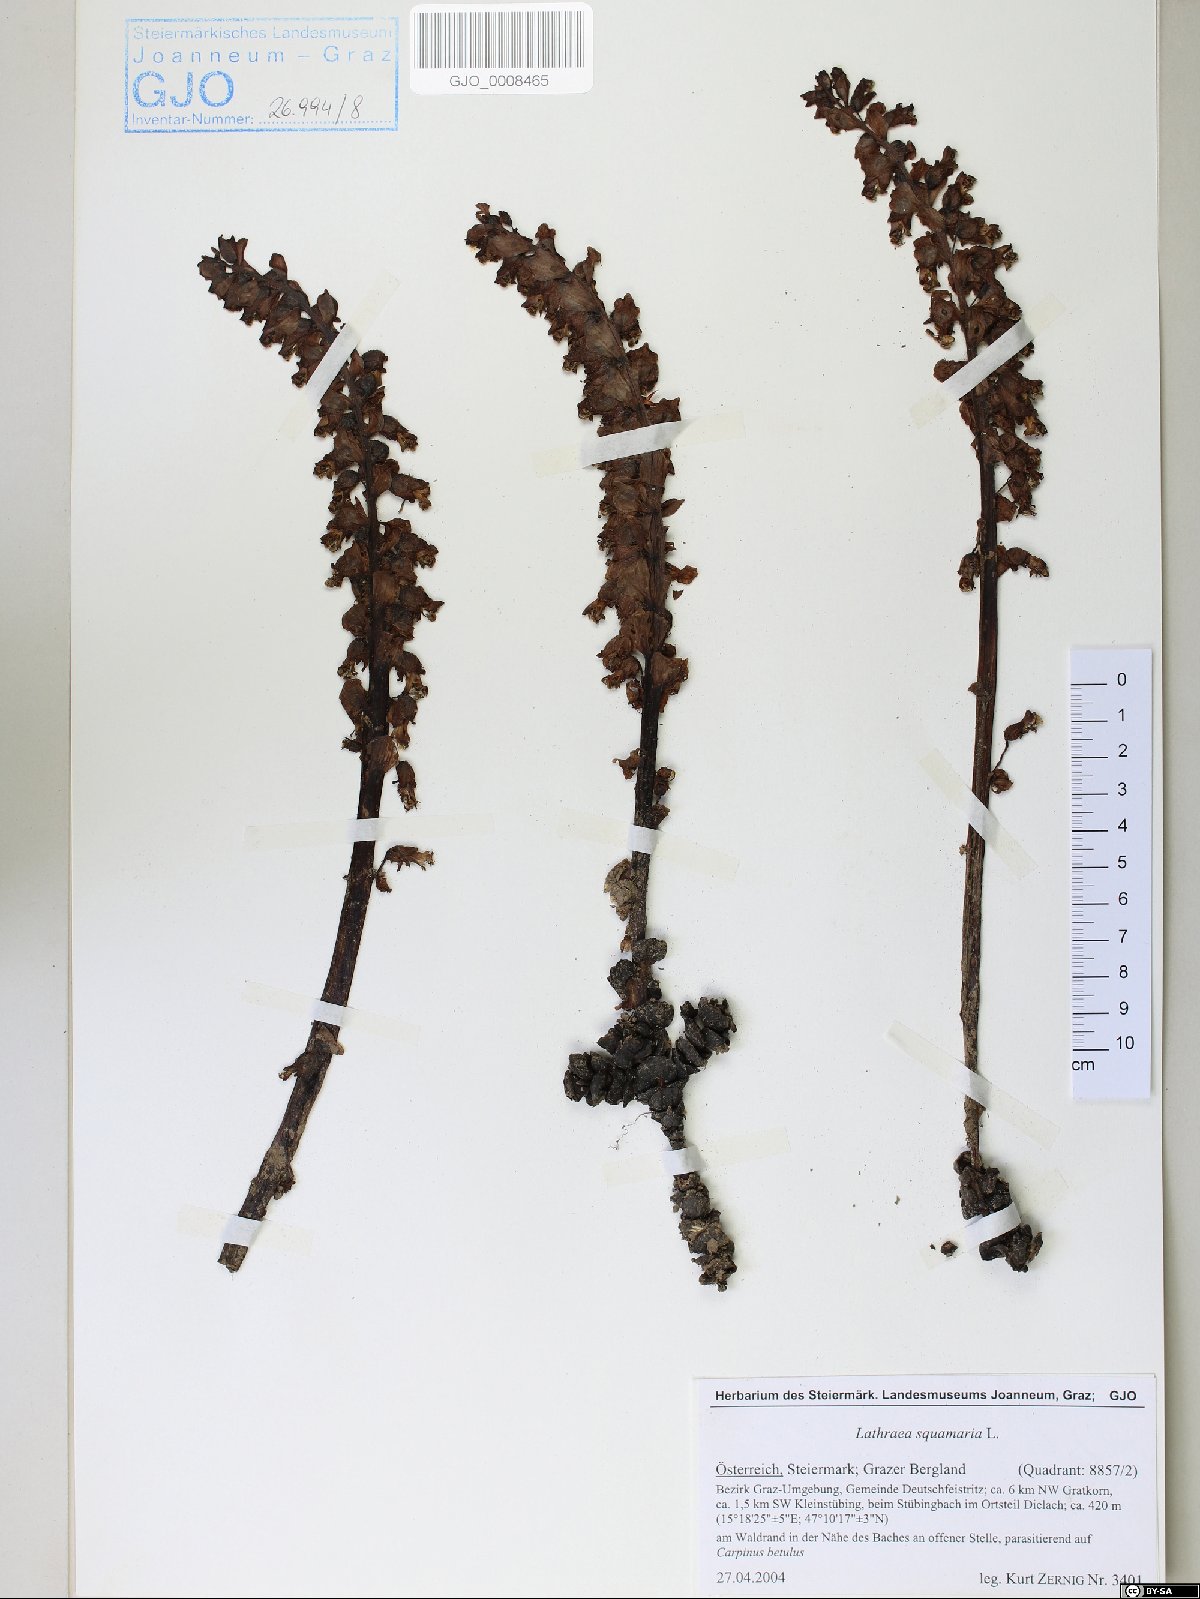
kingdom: Plantae
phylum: Tracheophyta
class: Magnoliopsida
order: Lamiales
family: Orobanchaceae
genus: Lathraea
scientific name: Lathraea squamaria
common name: Toothwort
